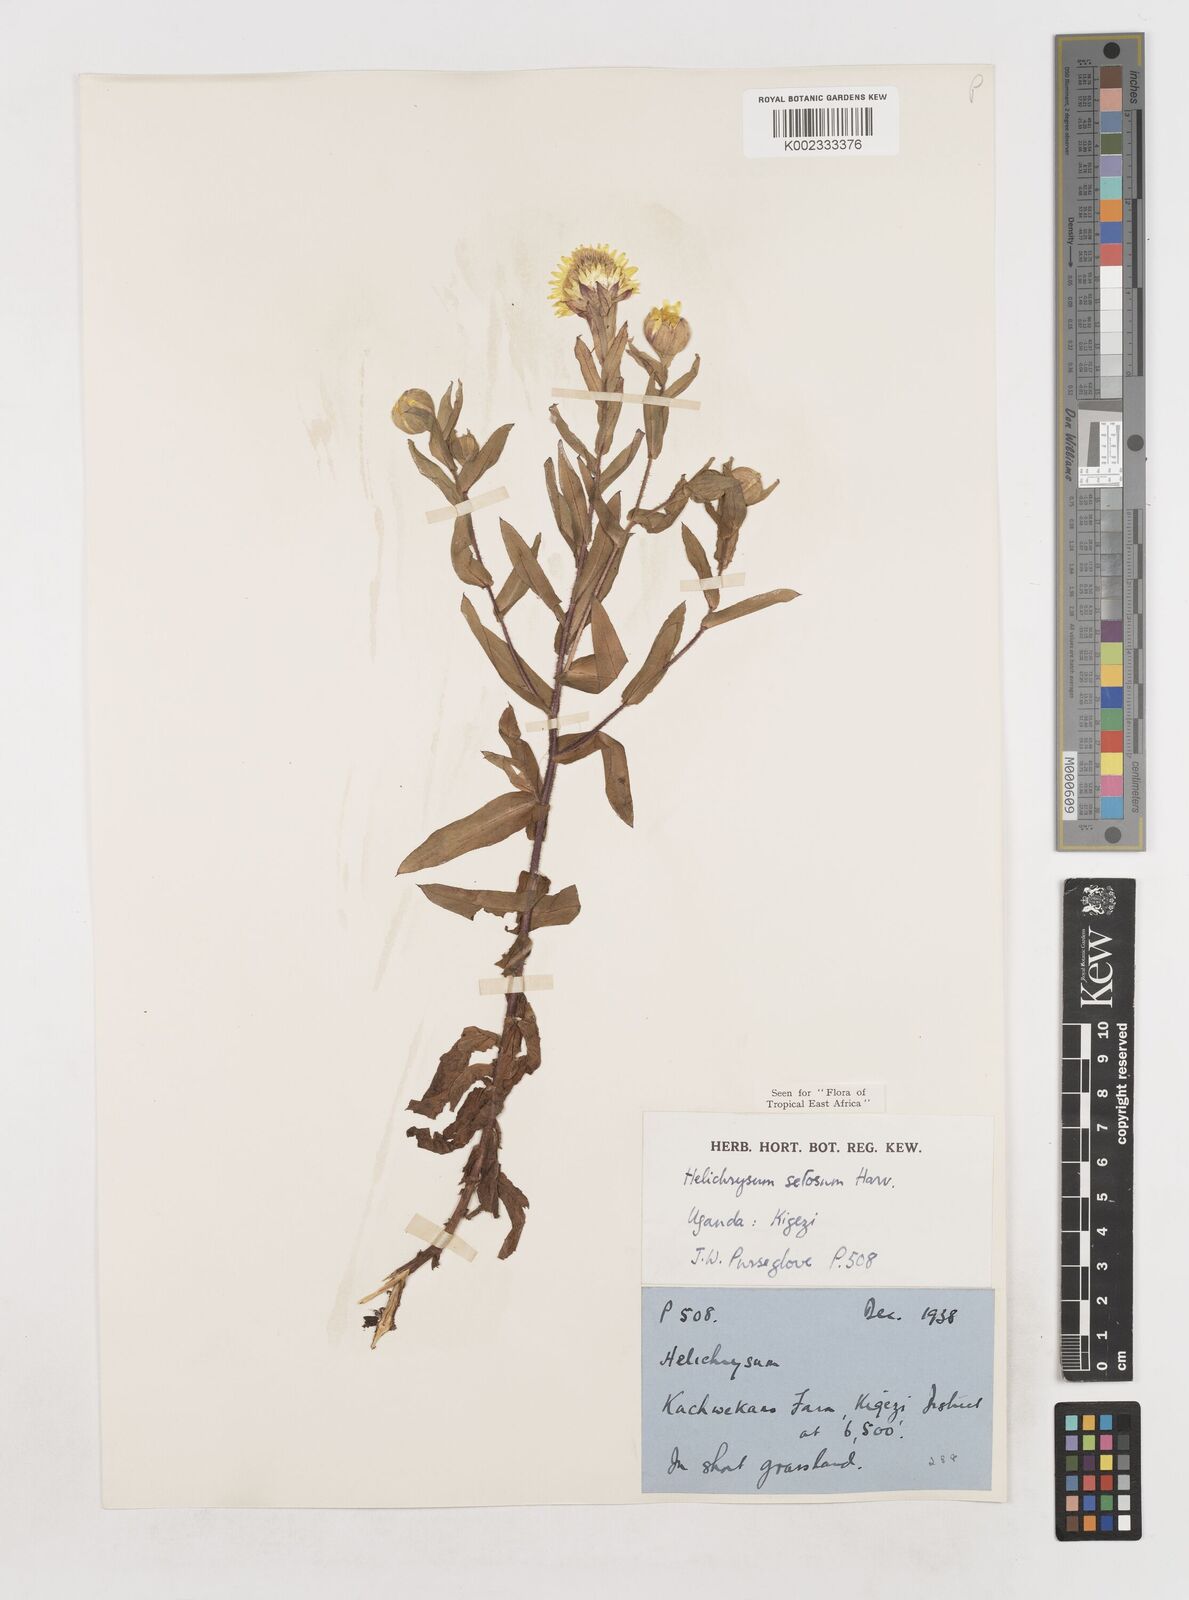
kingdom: Plantae
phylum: Tracheophyta
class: Magnoliopsida
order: Asterales
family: Asteraceae
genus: Helichrysum
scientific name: Helichrysum setosum
